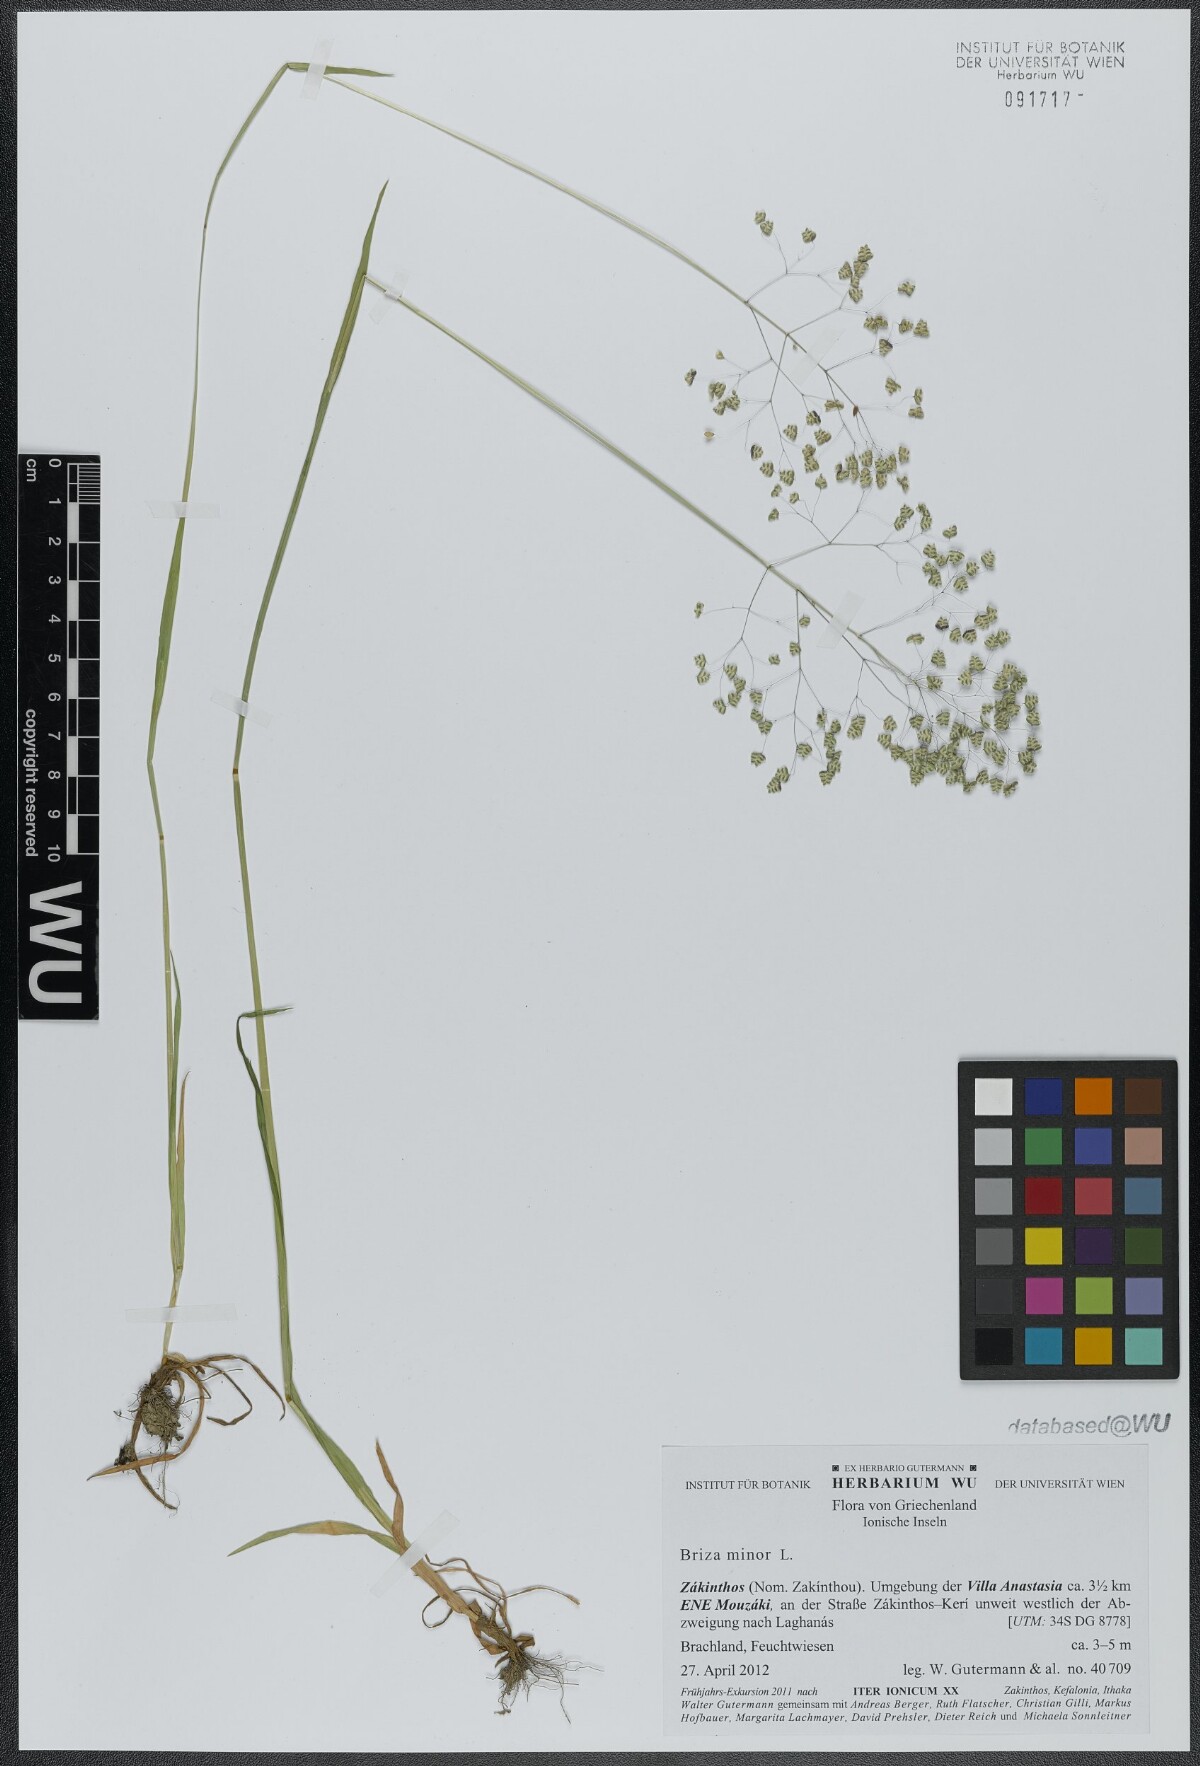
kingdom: Plantae
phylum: Tracheophyta
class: Liliopsida
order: Poales
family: Poaceae
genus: Briza
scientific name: Briza minor
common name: Lesser quaking-grass
